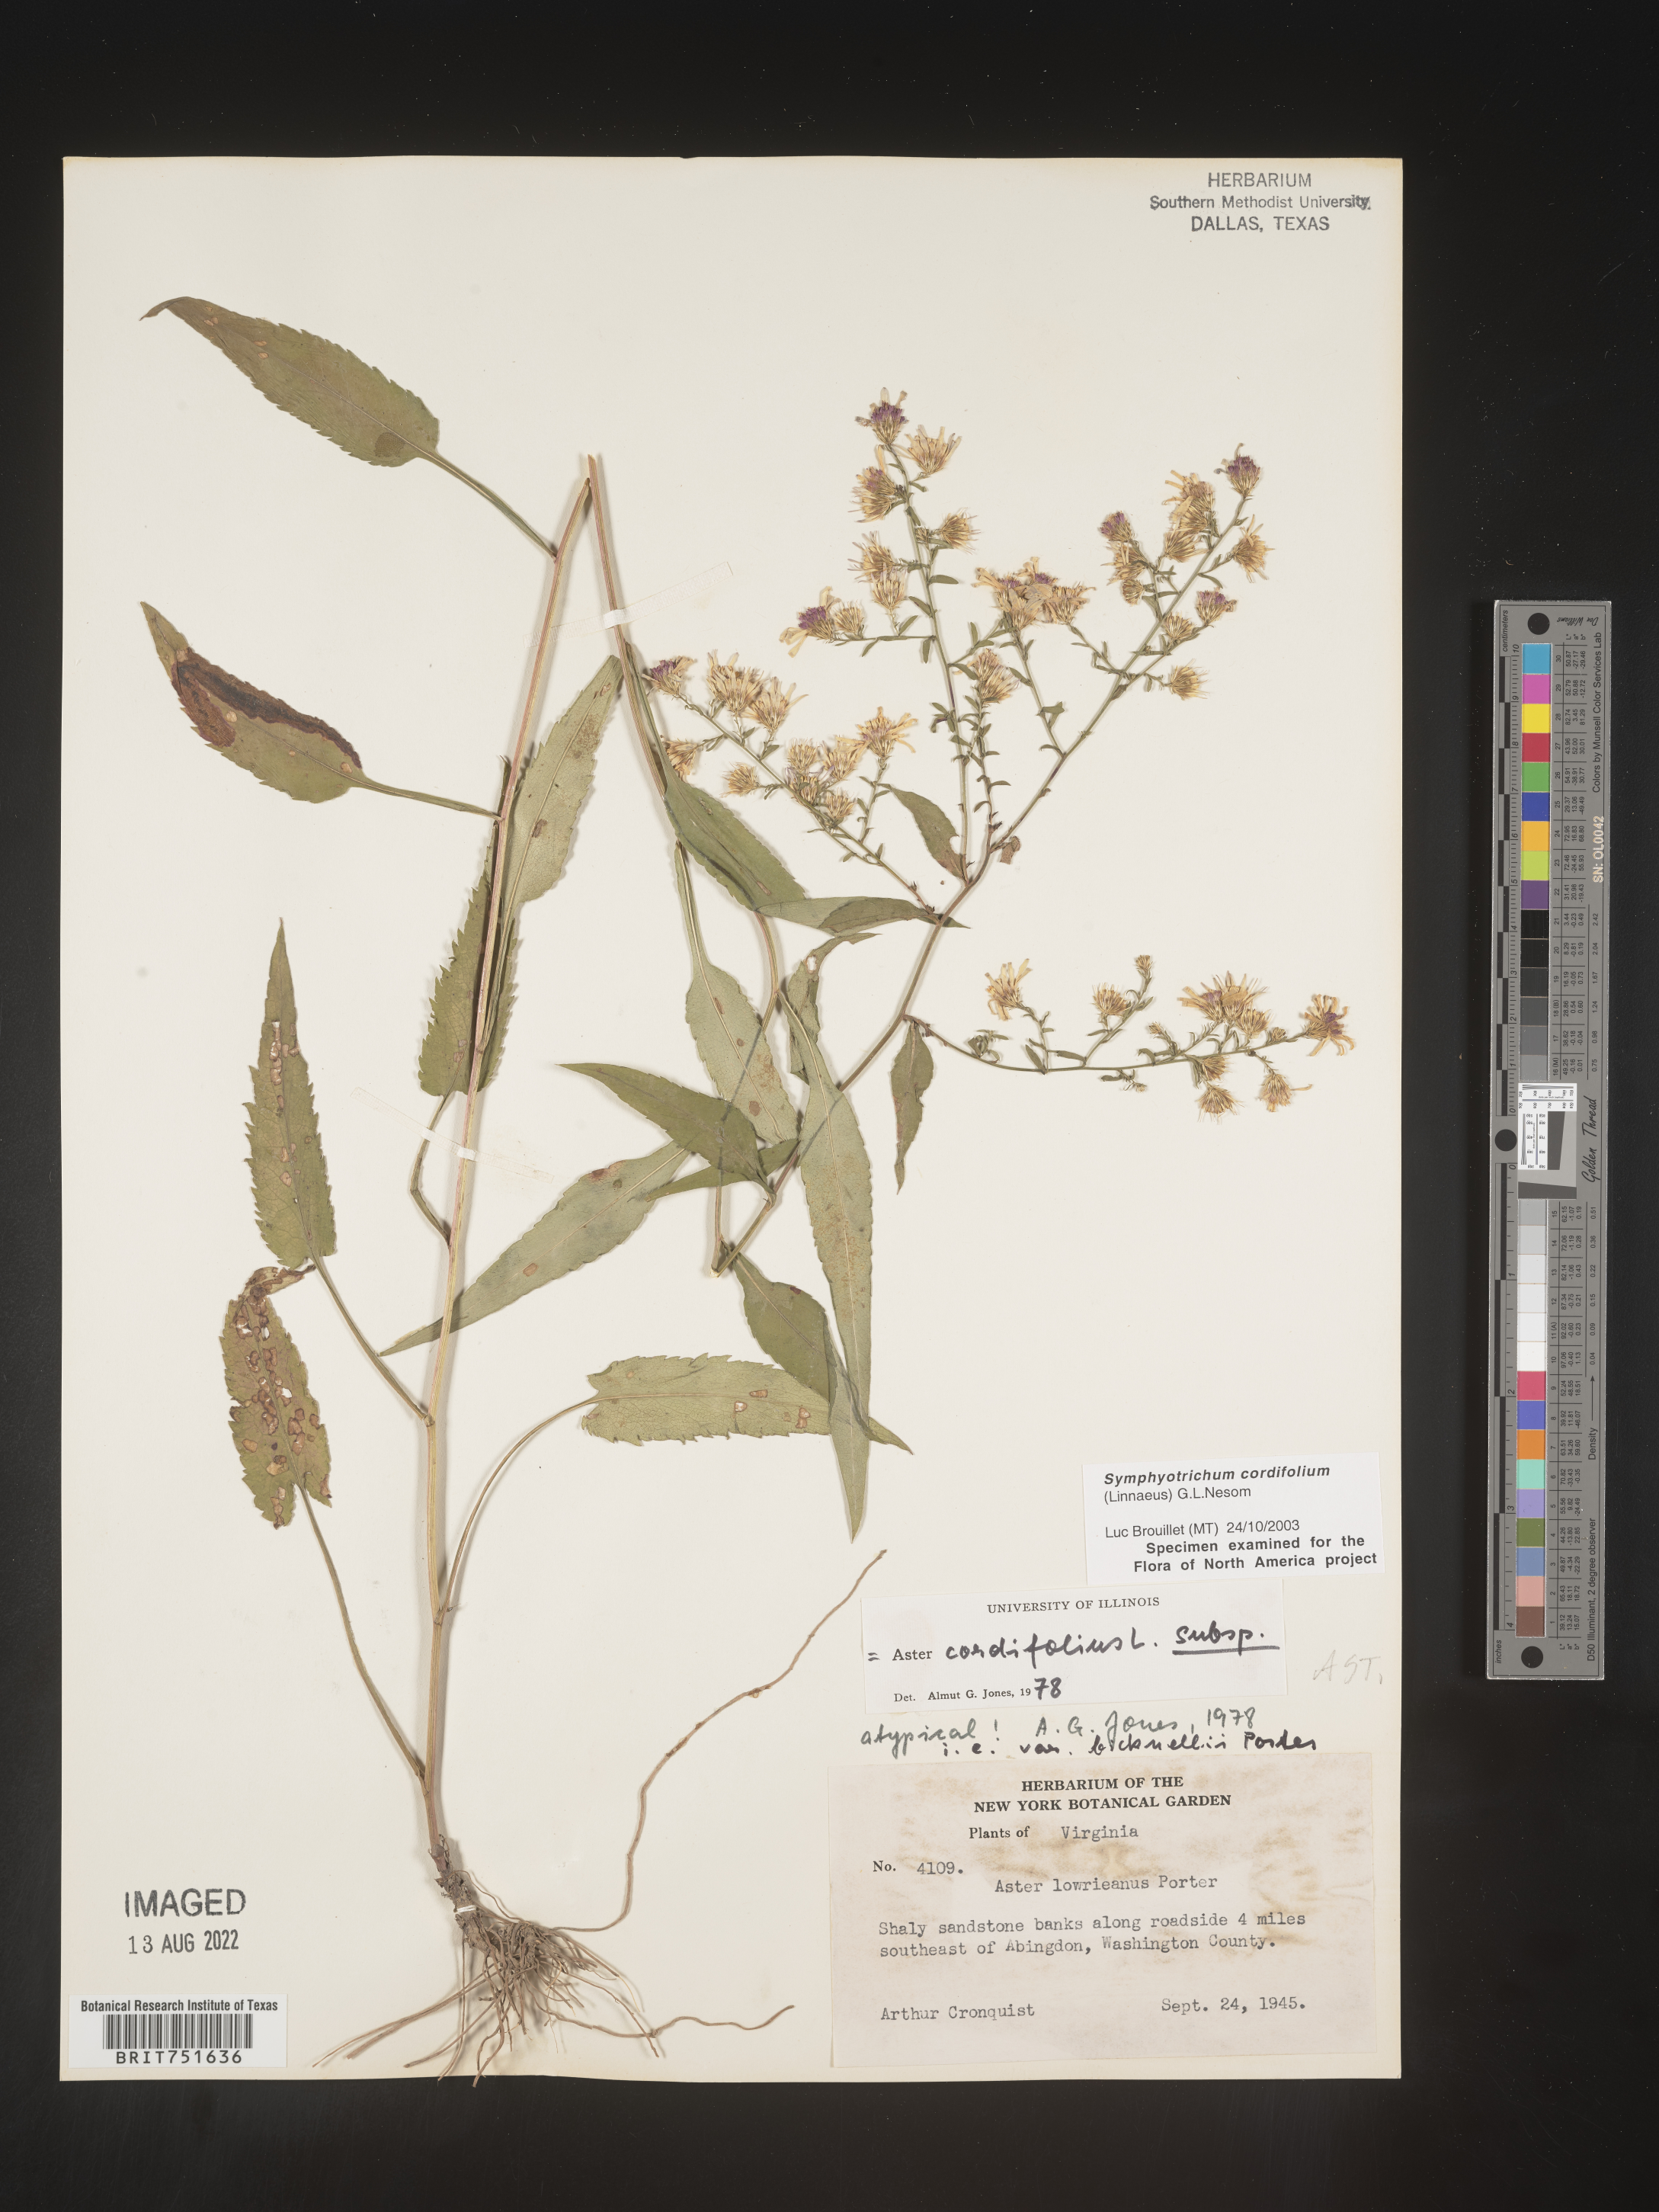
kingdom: Plantae
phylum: Tracheophyta
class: Magnoliopsida
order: Asterales
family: Asteraceae
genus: Symphyotrichum
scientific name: Symphyotrichum cordifolium
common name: Beeweed
